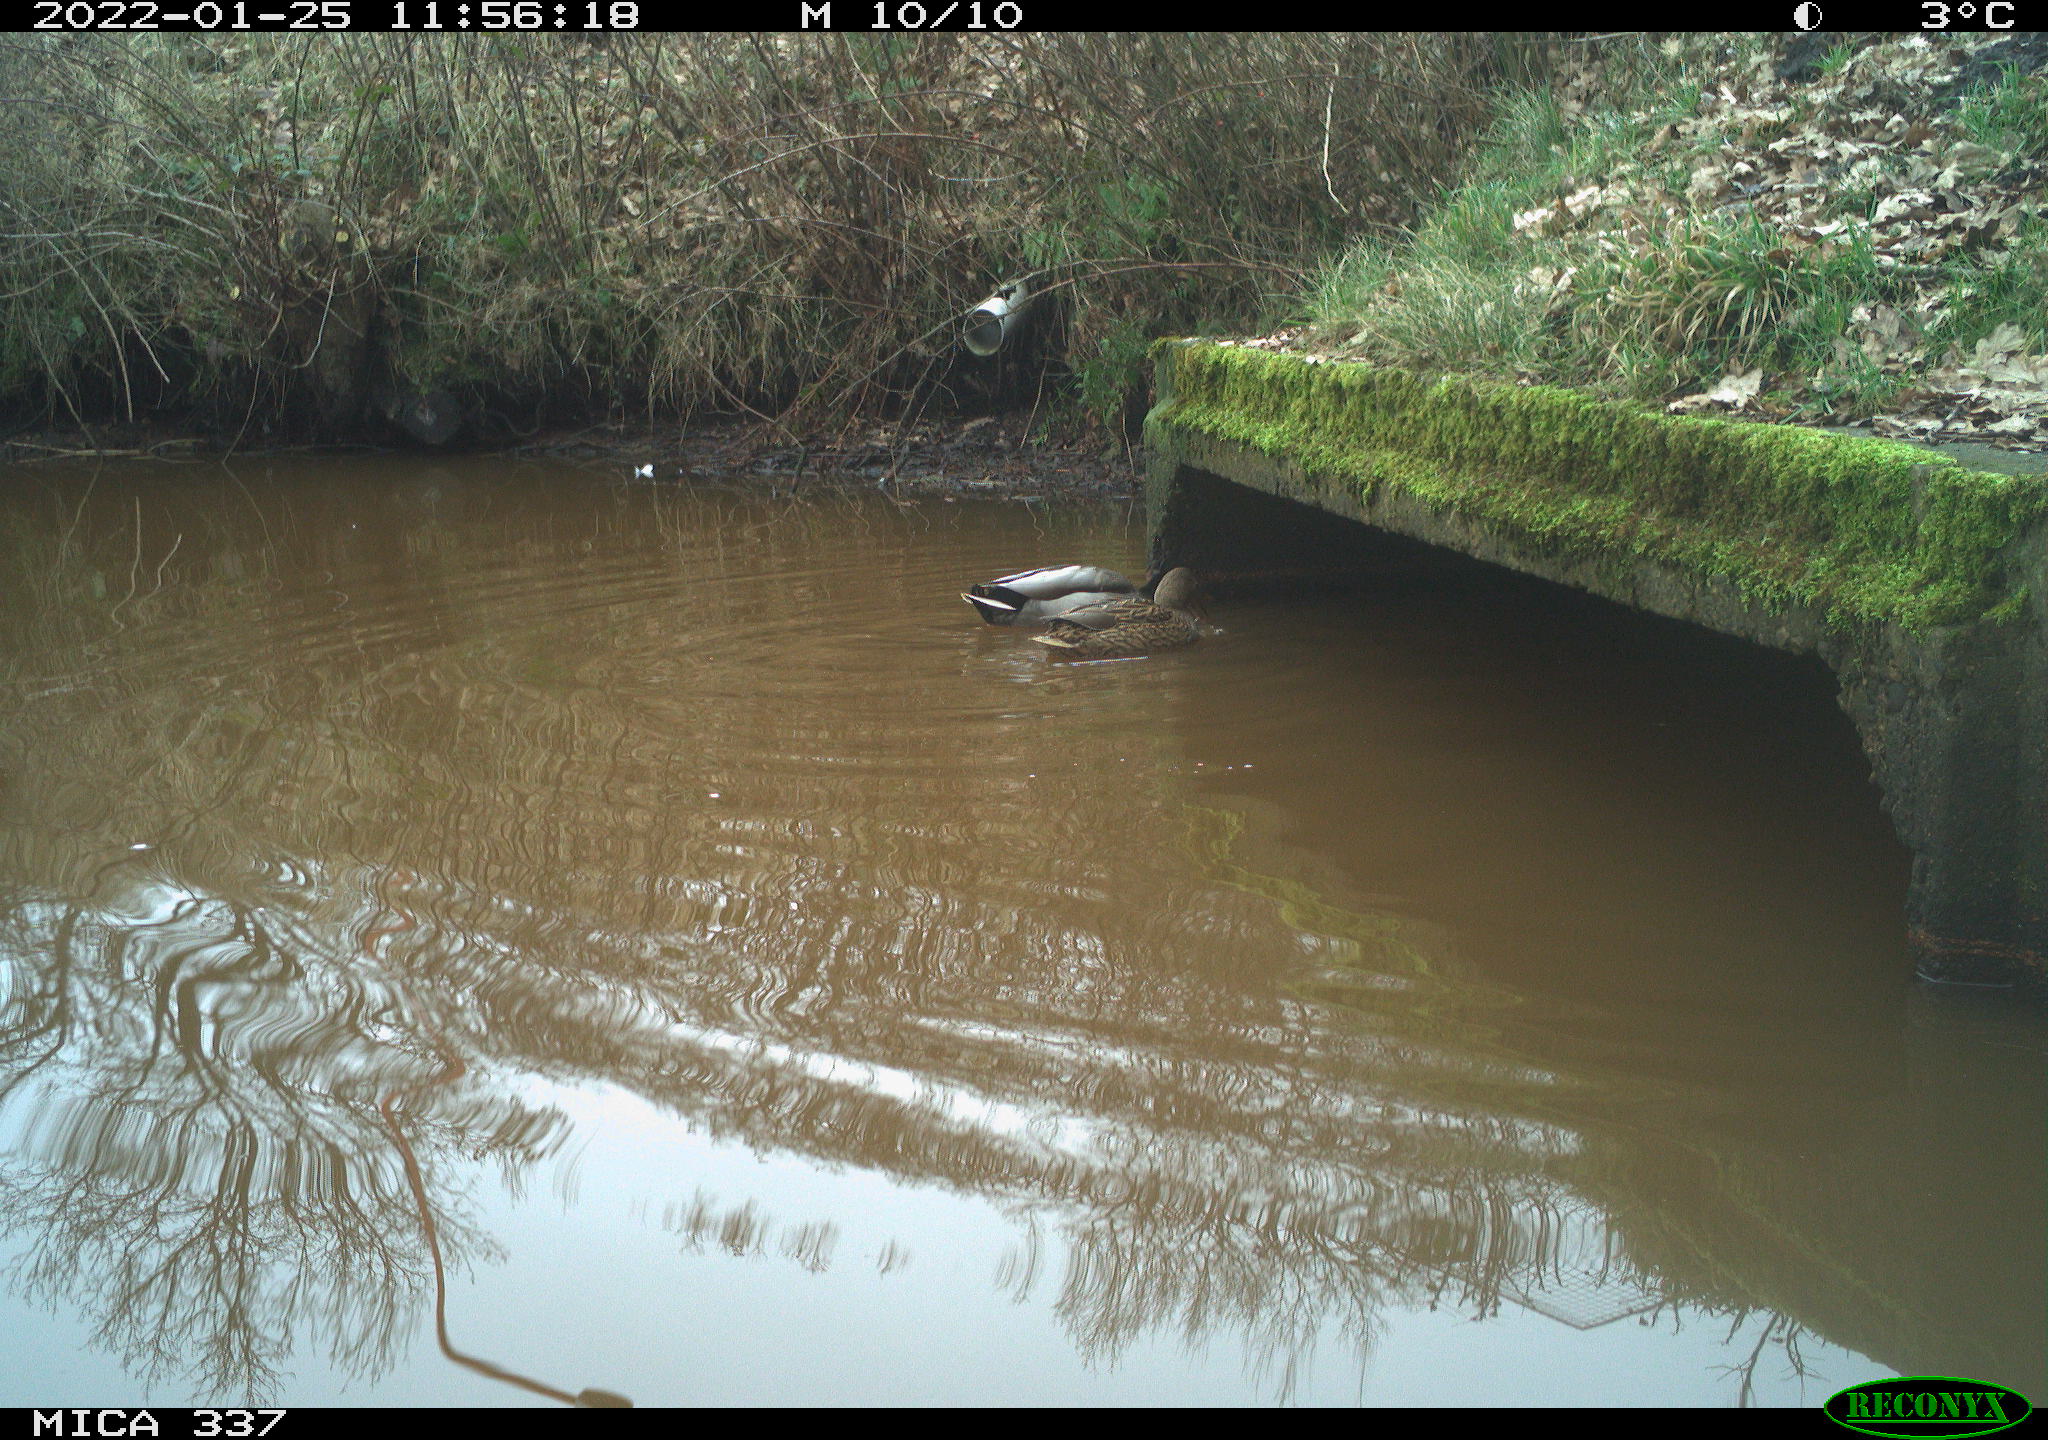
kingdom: Animalia
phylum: Chordata
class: Aves
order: Anseriformes
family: Anatidae
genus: Anas
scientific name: Anas platyrhynchos
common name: Mallard
